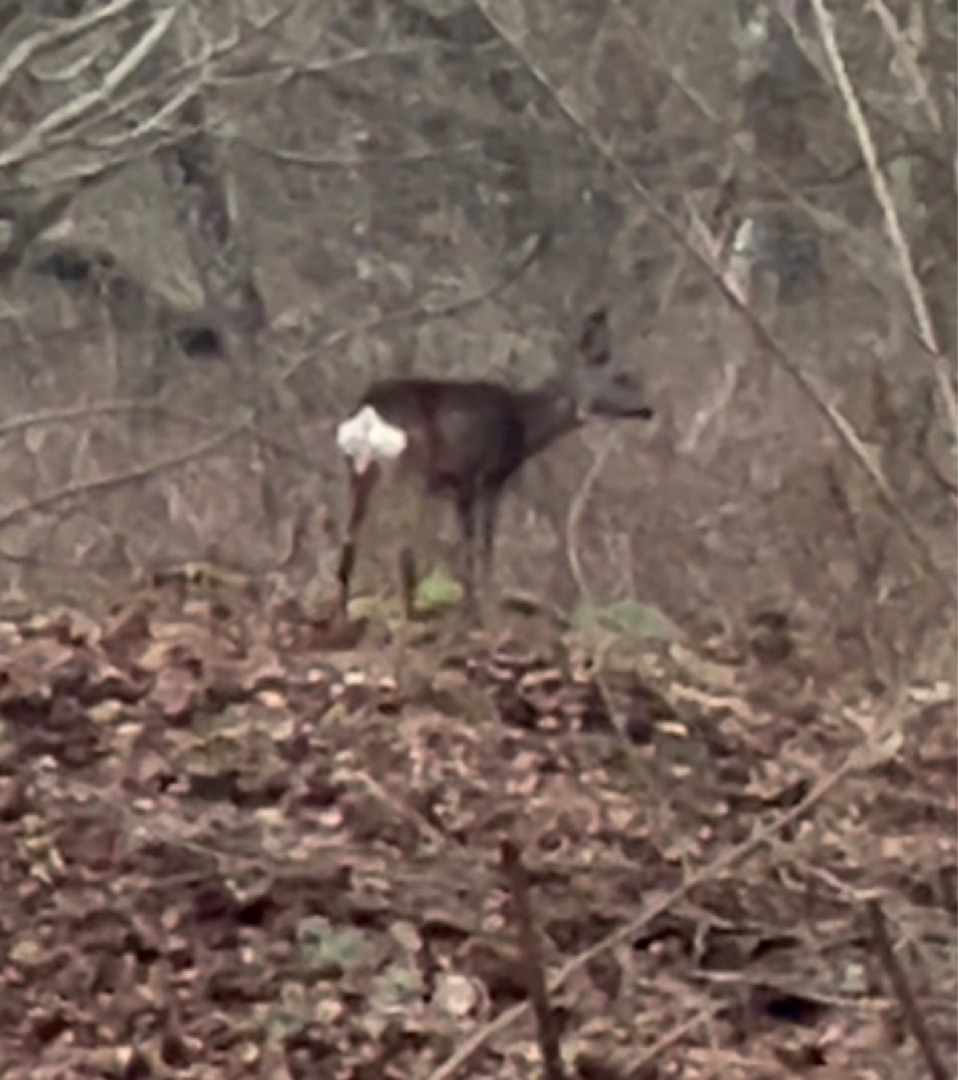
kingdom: Animalia
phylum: Chordata
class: Mammalia
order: Artiodactyla
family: Cervidae
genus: Capreolus
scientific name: Capreolus capreolus
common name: Rådyr
